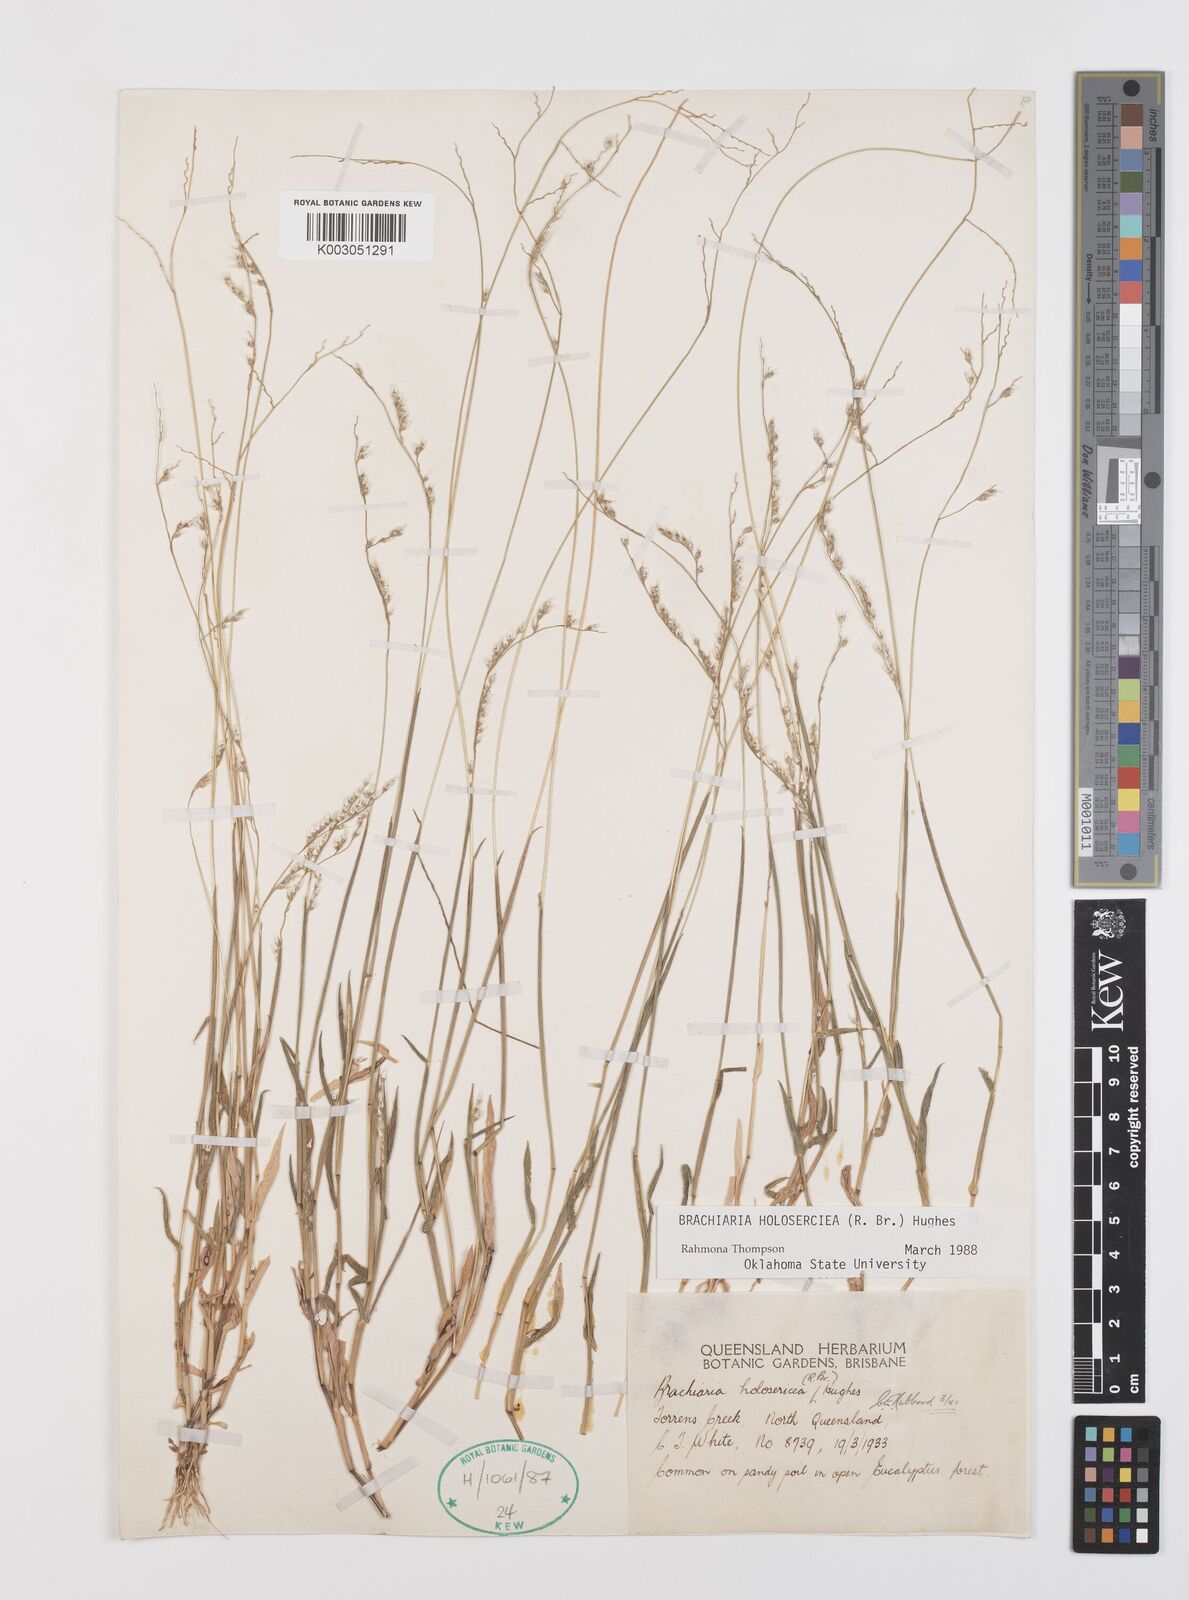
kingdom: Plantae
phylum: Tracheophyta
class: Liliopsida
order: Poales
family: Poaceae
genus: Urochloa
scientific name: Urochloa holosericea
